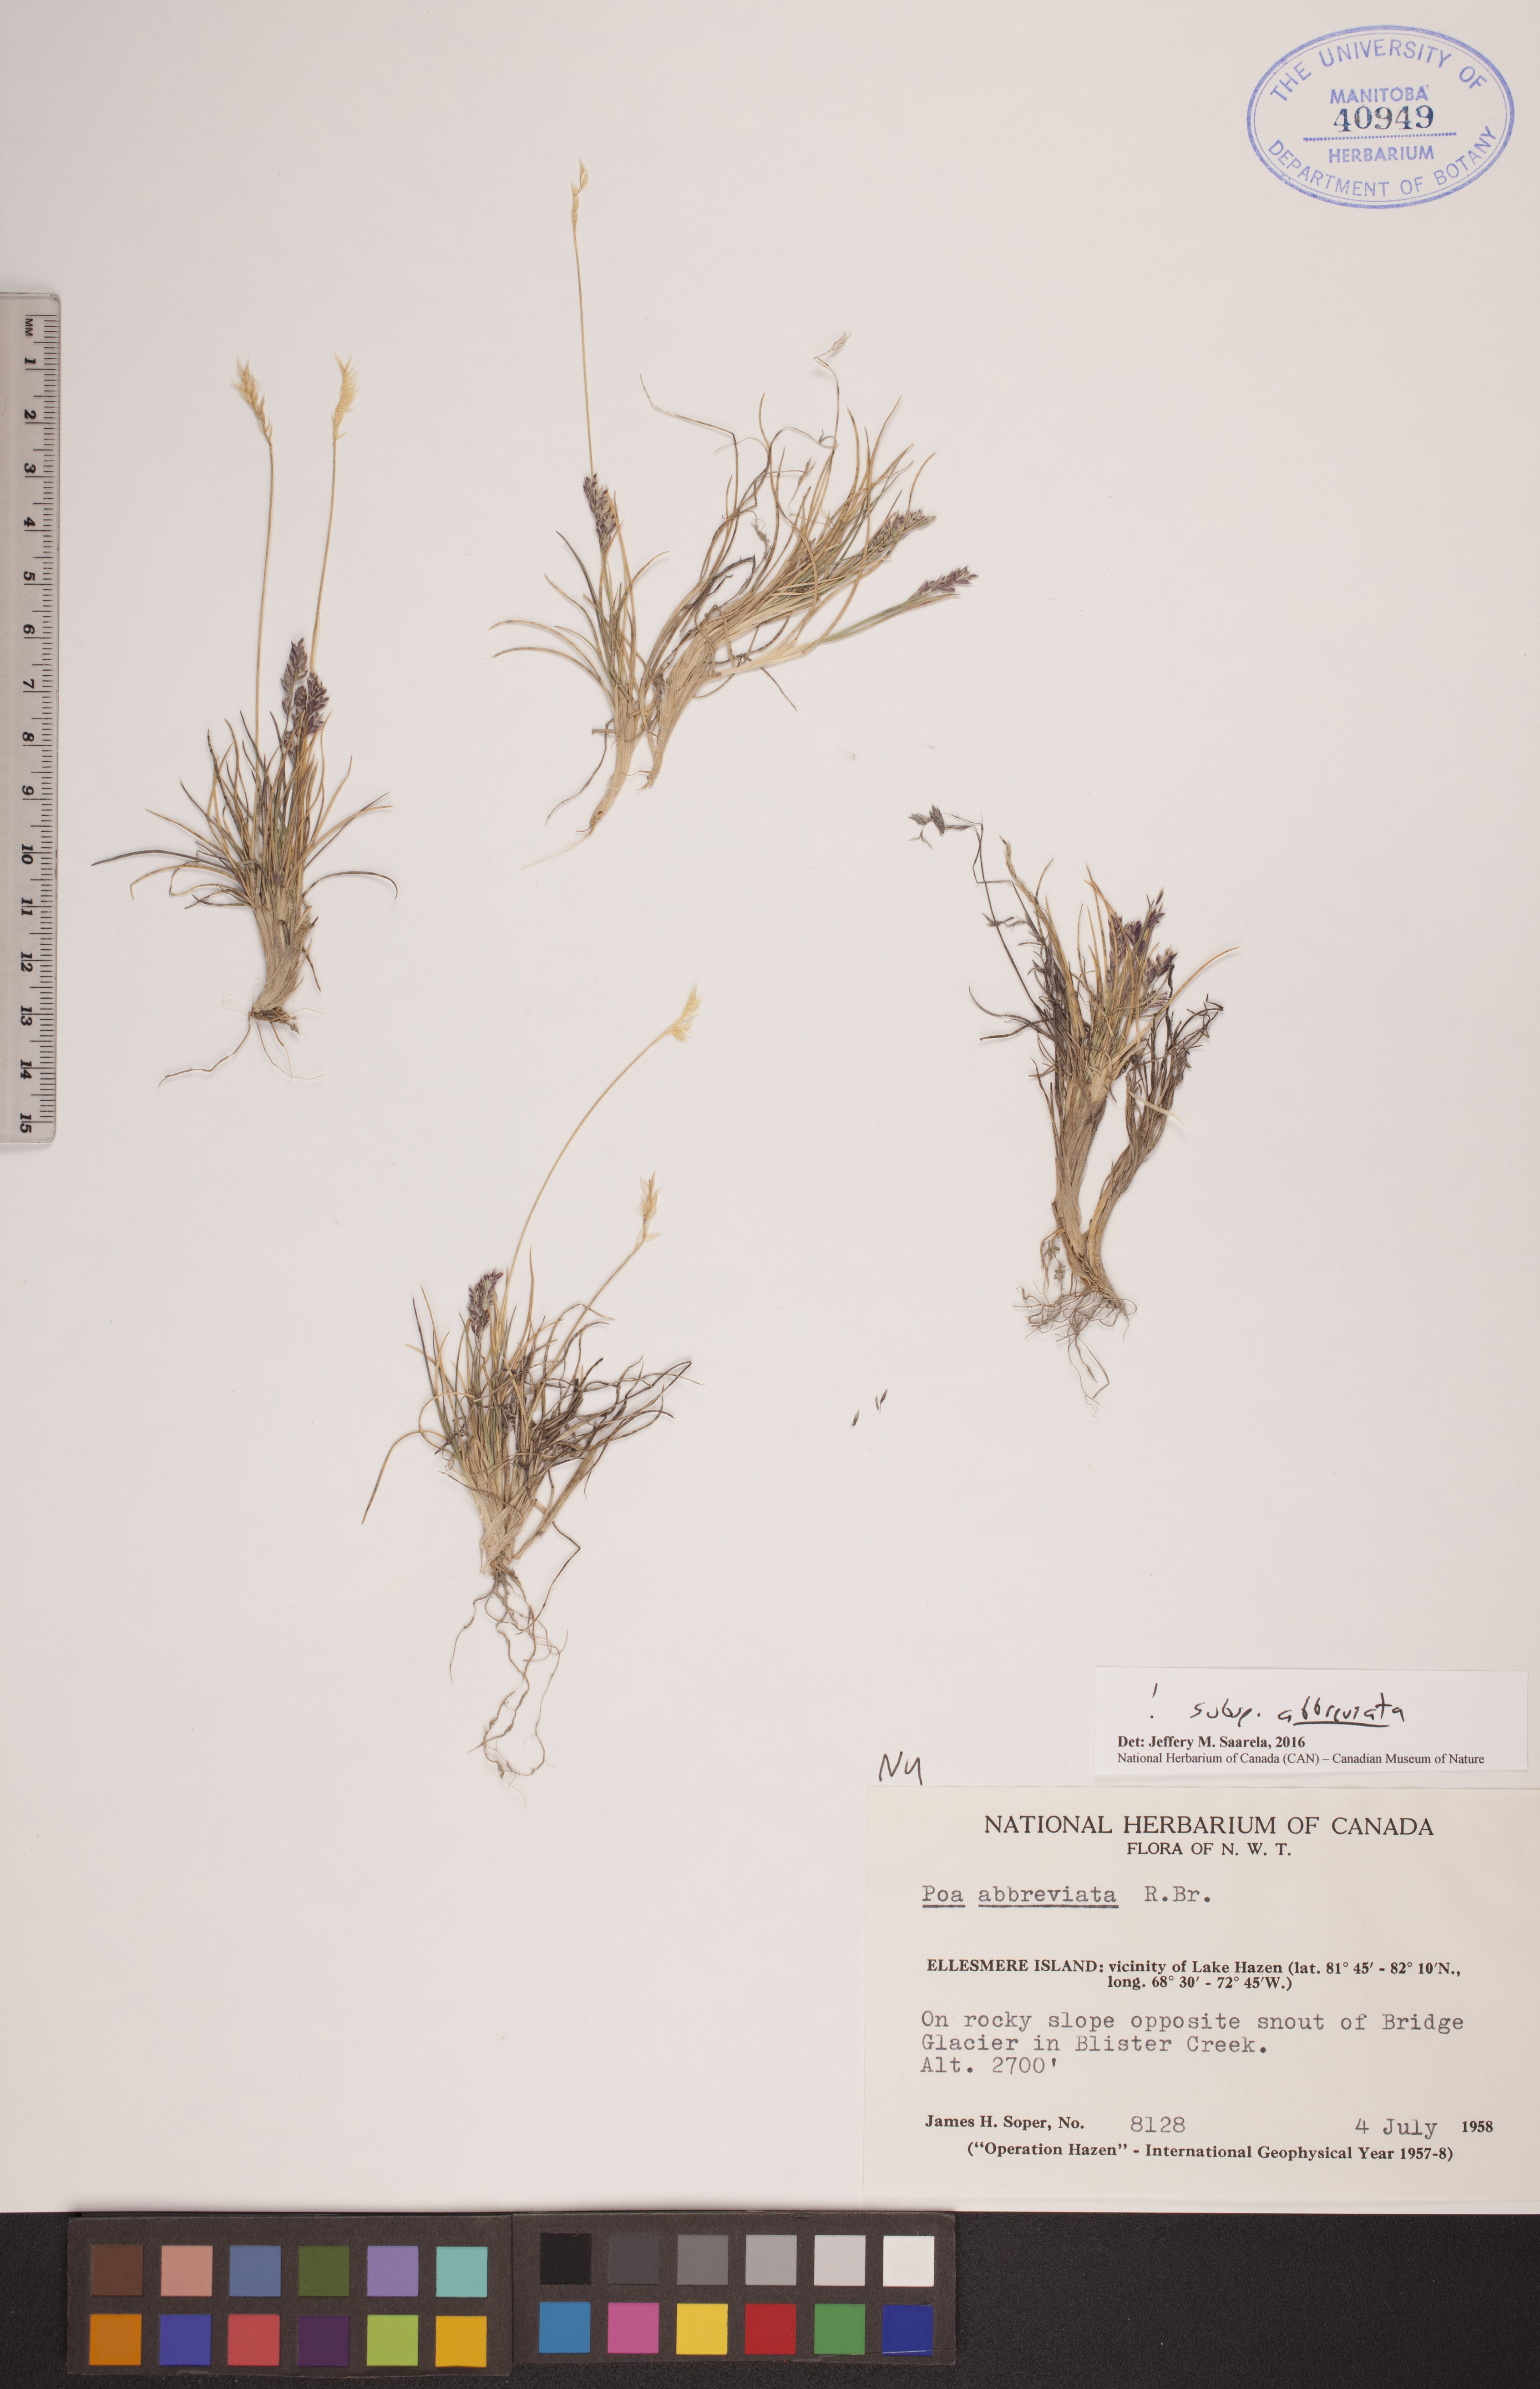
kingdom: Plantae
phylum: Tracheophyta
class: Liliopsida
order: Poales
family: Poaceae
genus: Poa
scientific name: Poa abbreviata
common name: Abbreviated bluegrass
